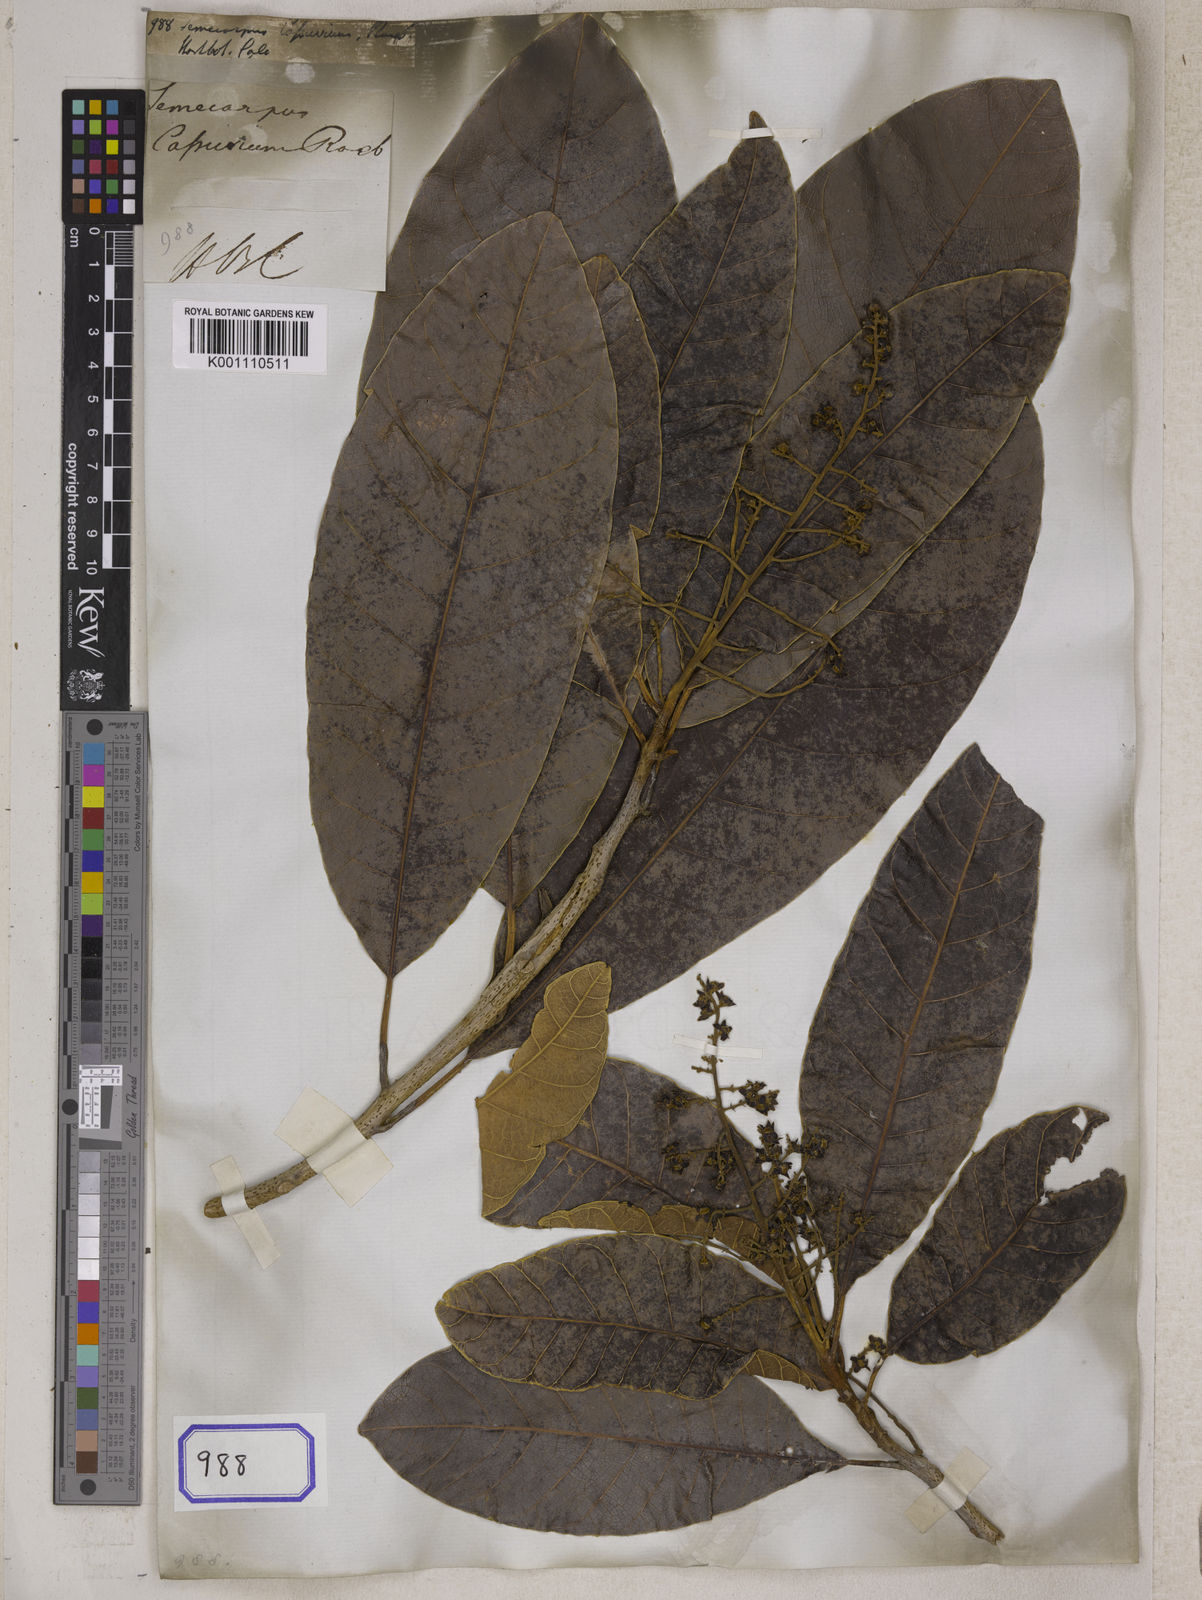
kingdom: Plantae
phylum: Tracheophyta
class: Magnoliopsida
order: Sapindales
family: Anacardiaceae
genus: Semecarpus
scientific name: Semecarpus cassuvium
